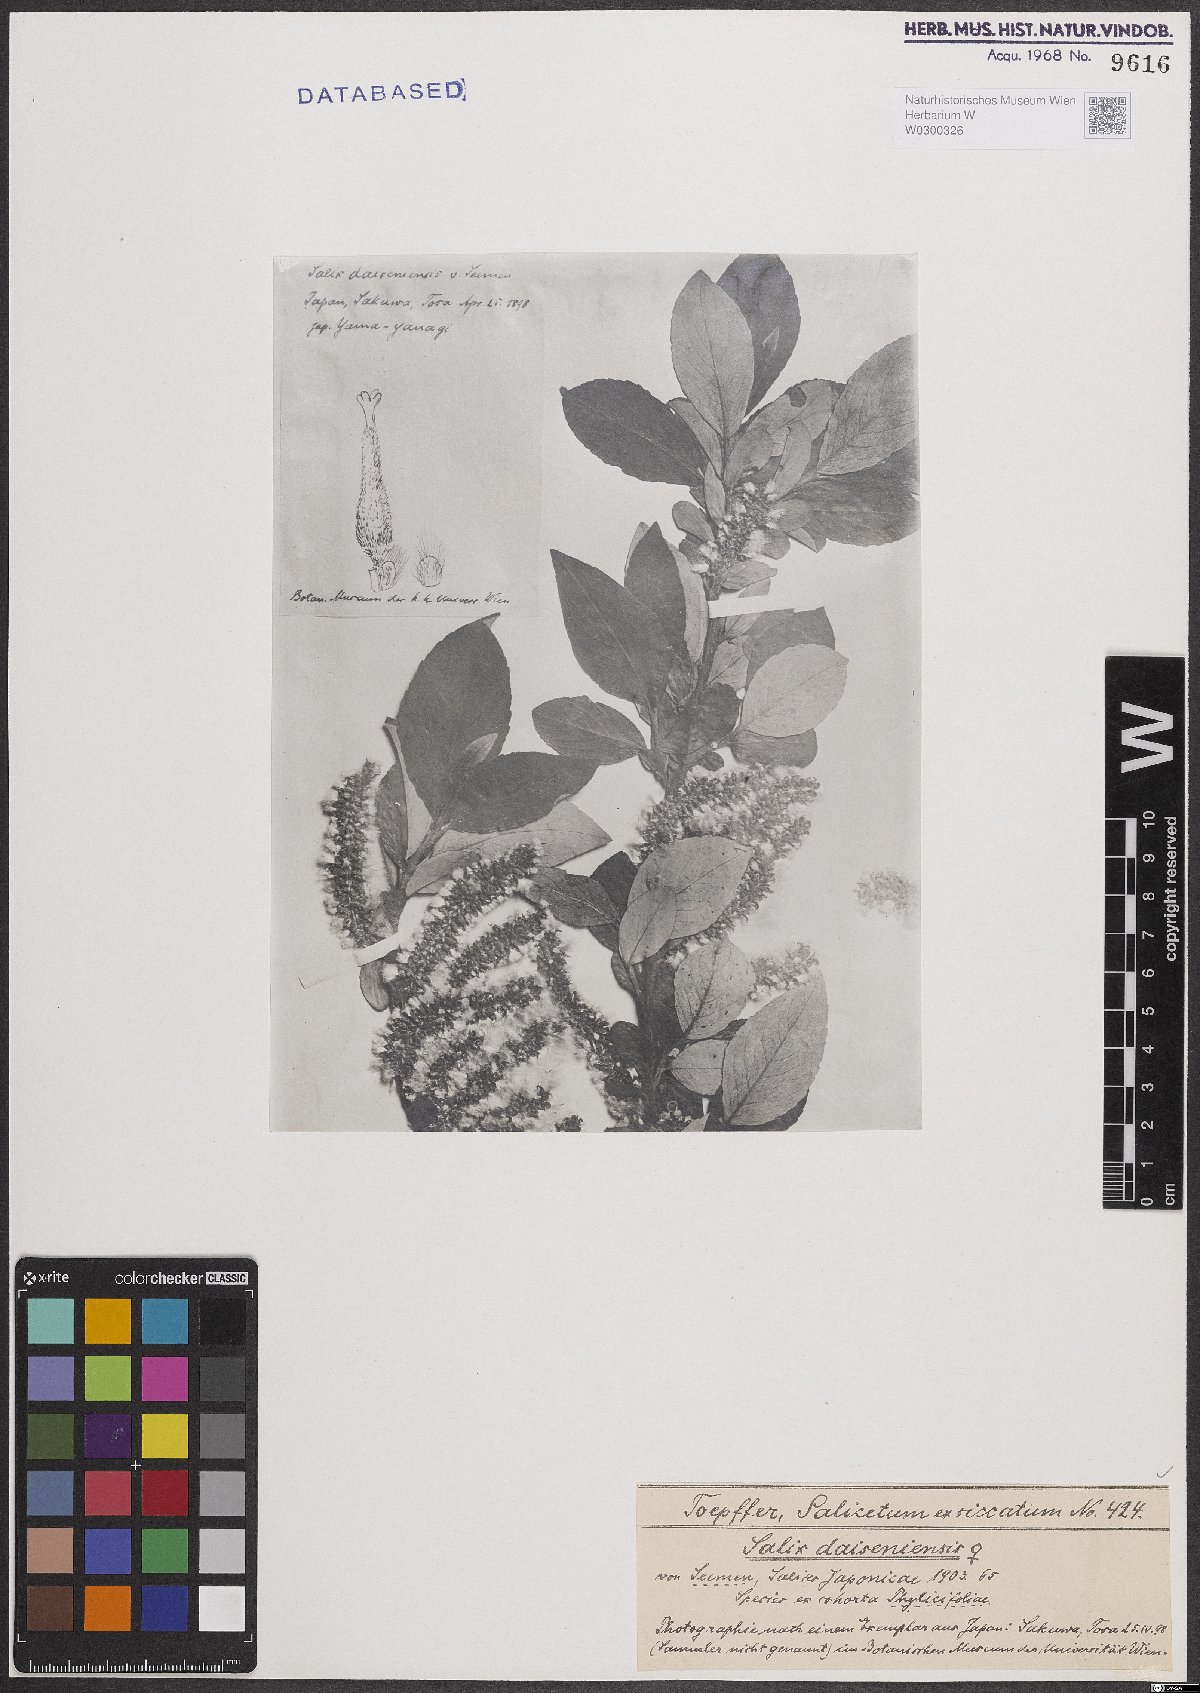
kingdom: Plantae
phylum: Tracheophyta
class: Magnoliopsida
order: Malpighiales
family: Salicaceae
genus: Salix
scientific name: Salix sieboldiana
